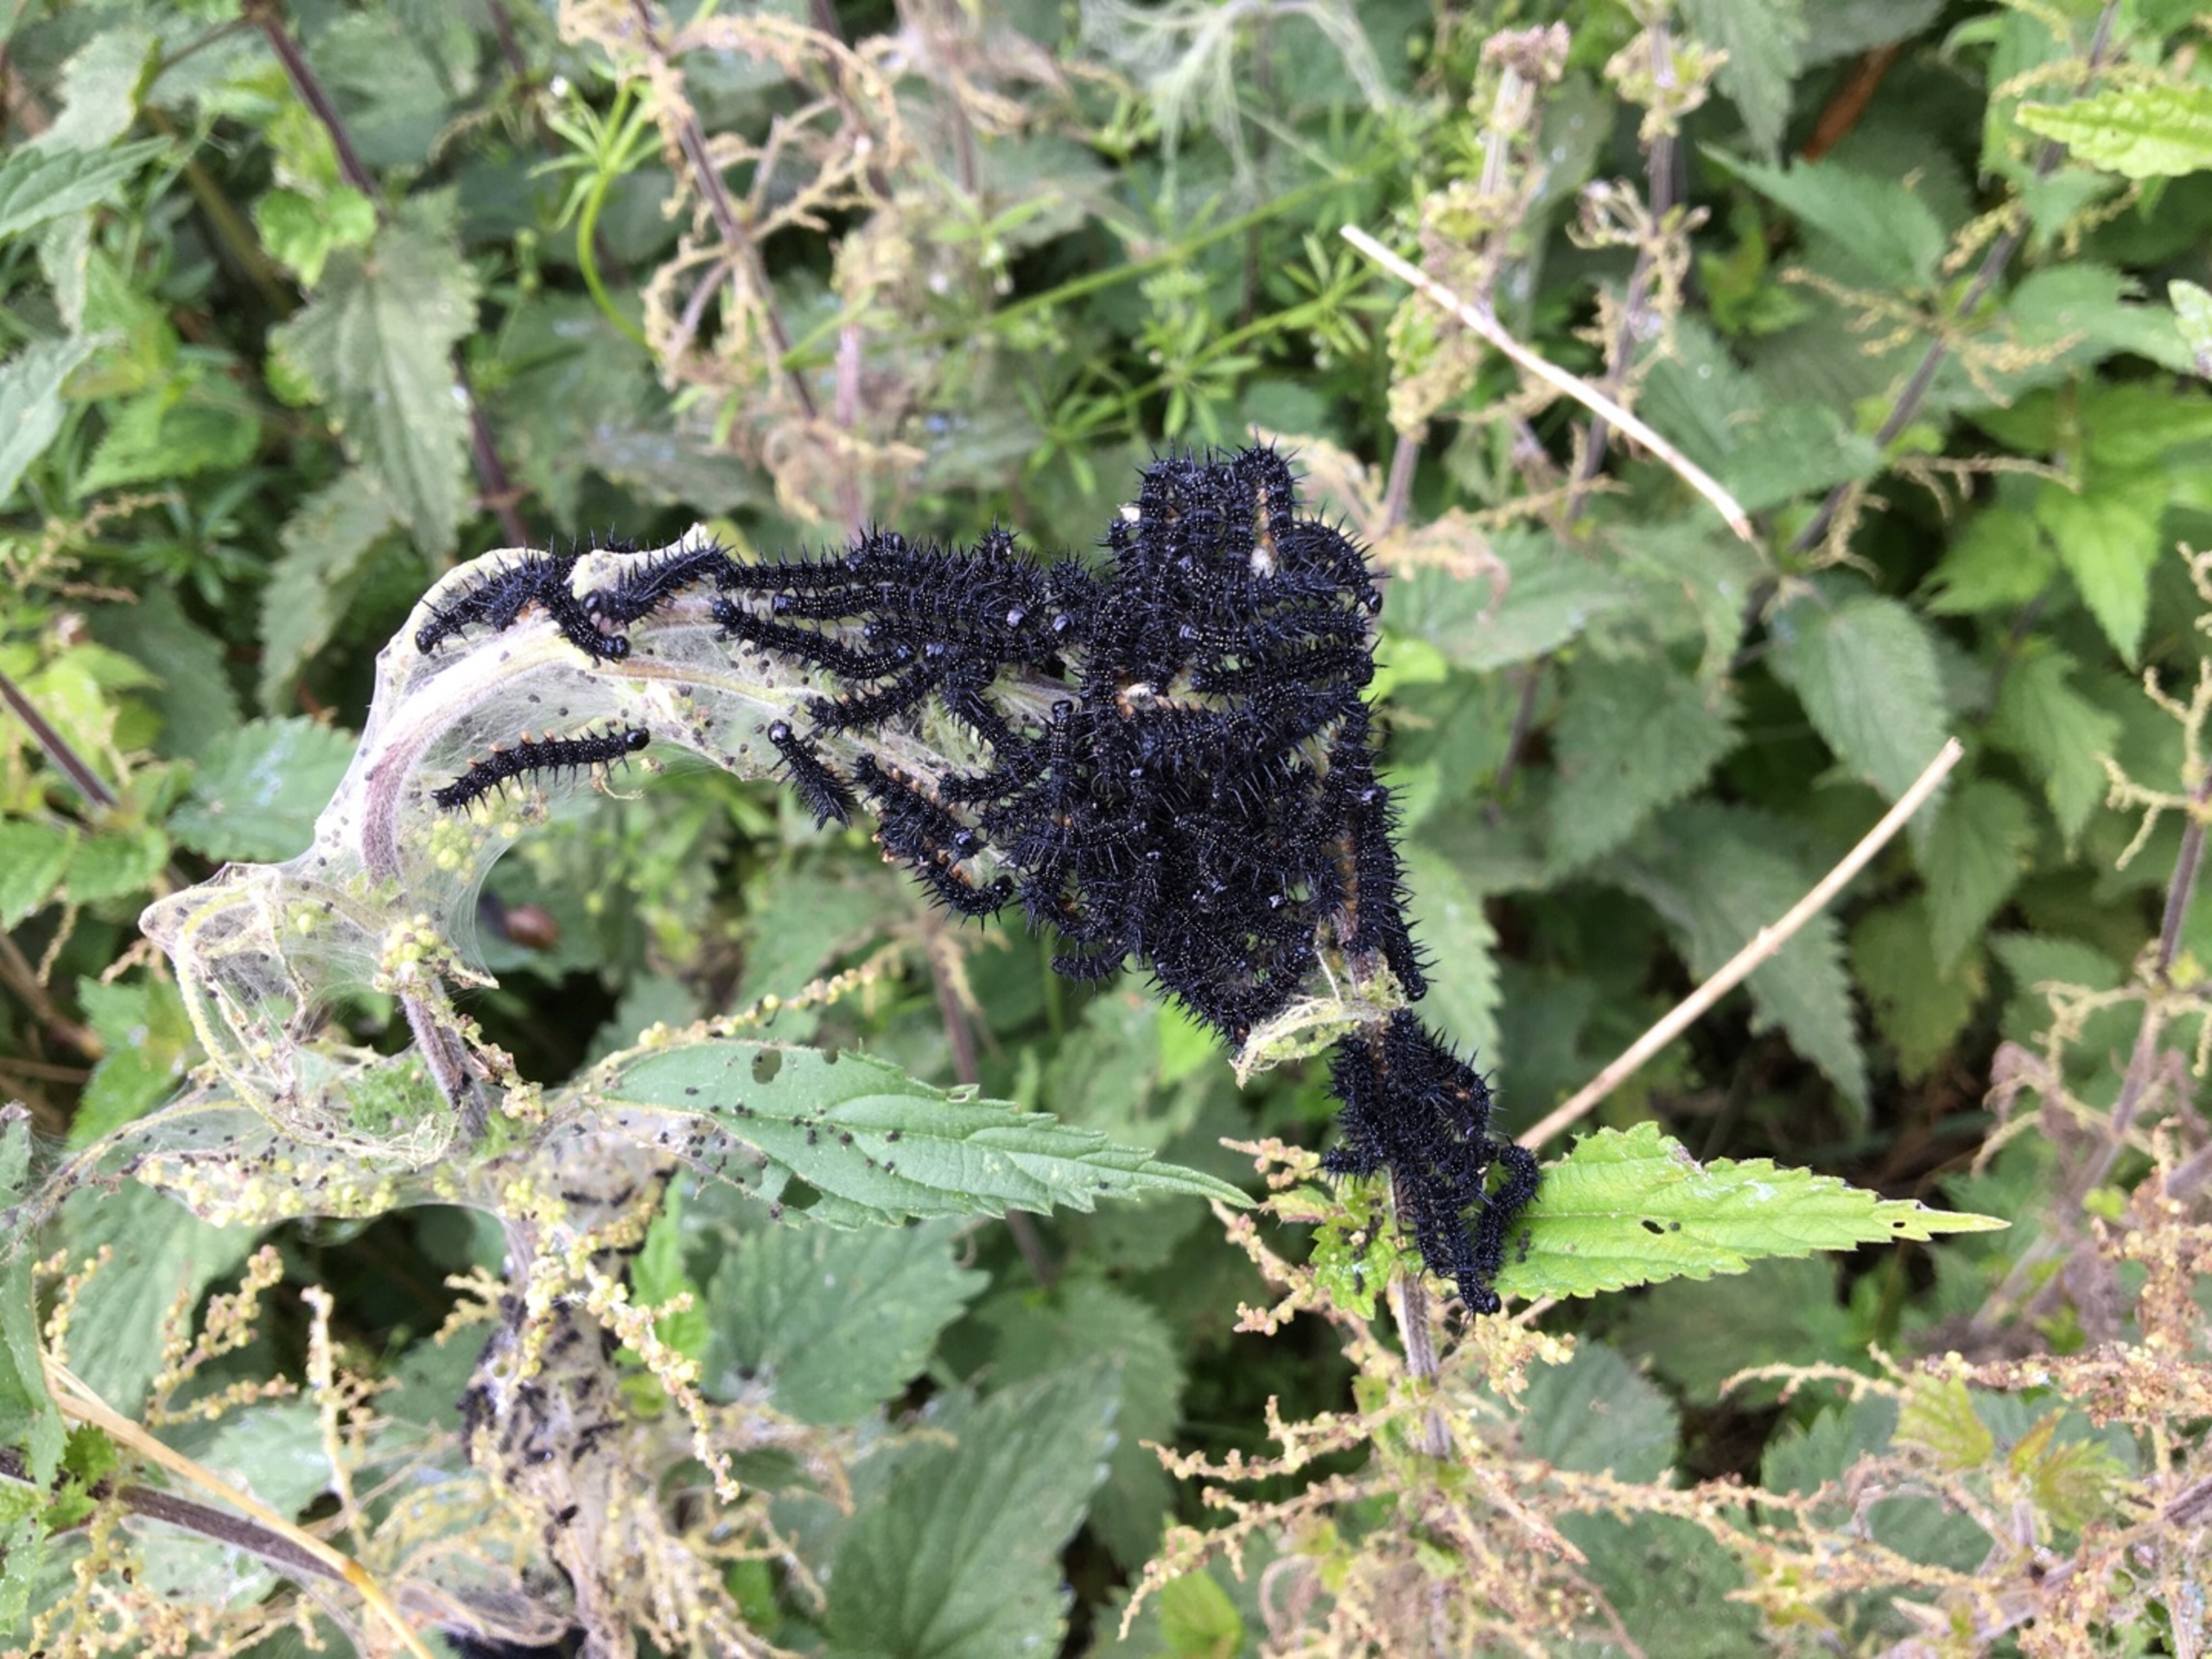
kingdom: Animalia
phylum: Arthropoda
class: Insecta
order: Lepidoptera
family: Nymphalidae
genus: Aglais
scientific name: Aglais io
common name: Dagpåfugleøje
